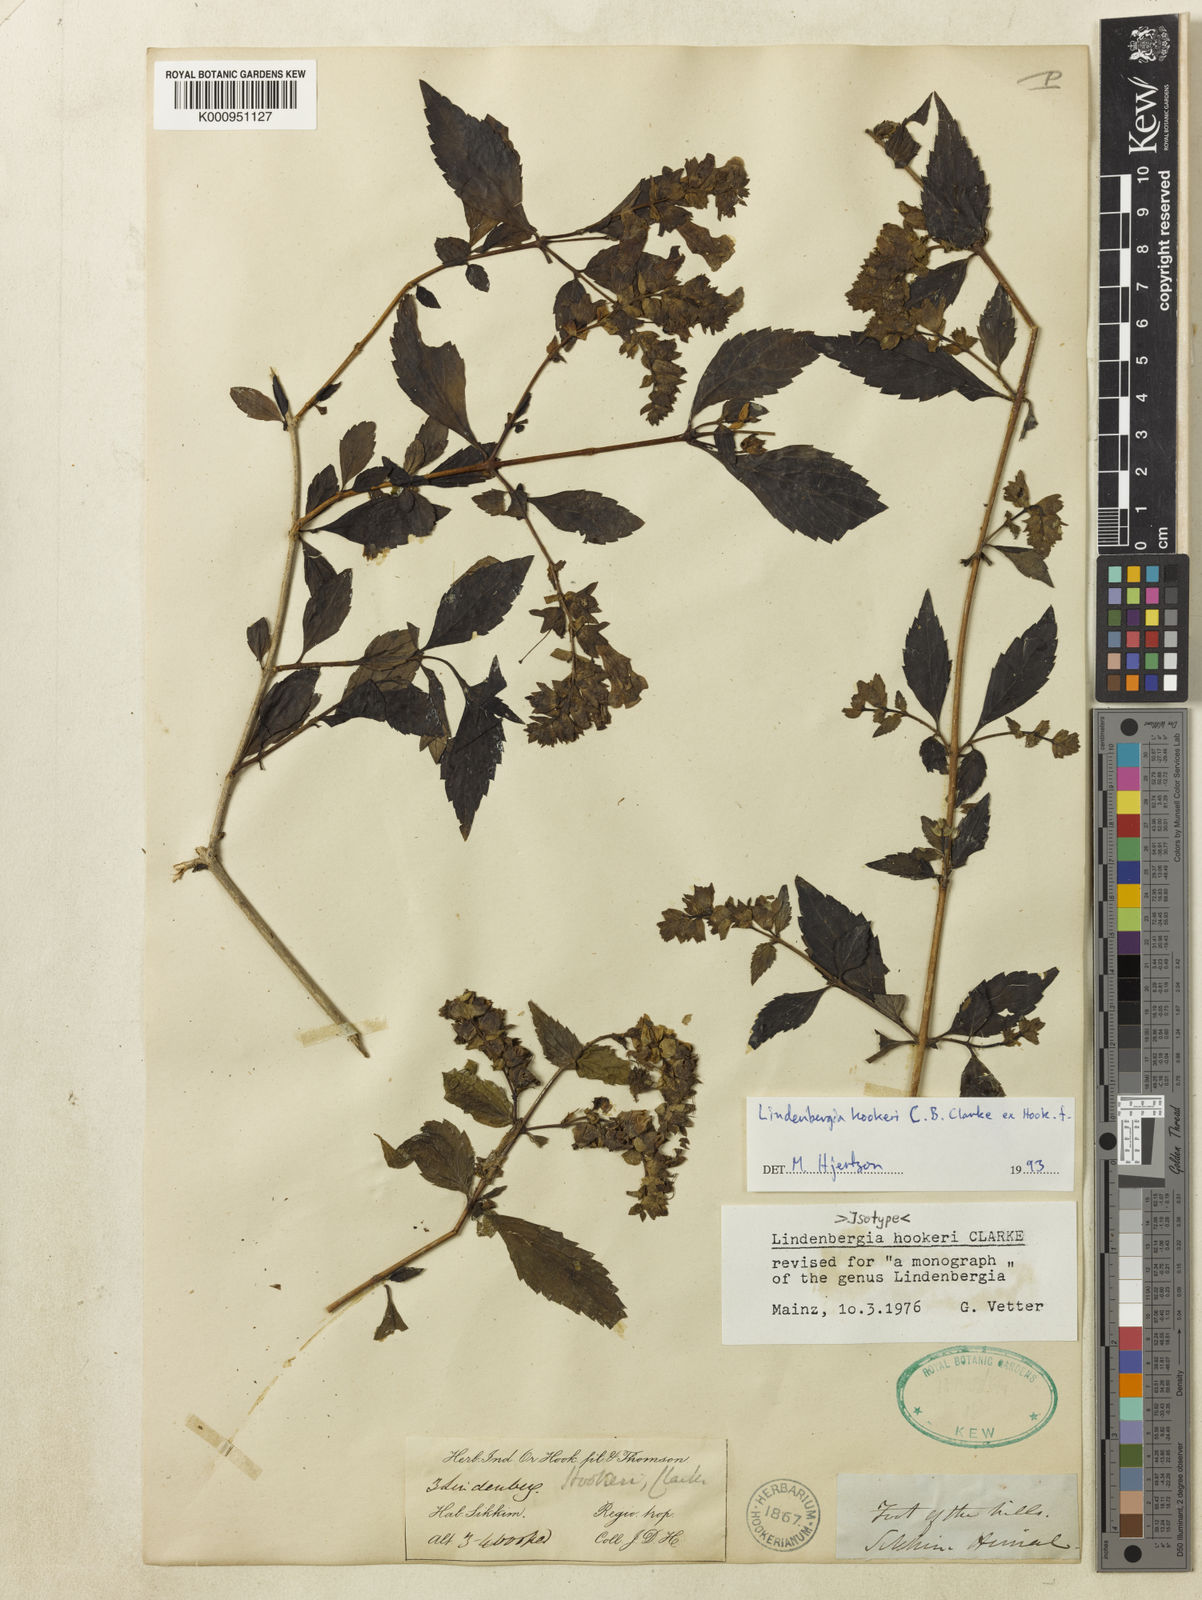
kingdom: Plantae
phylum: Tracheophyta
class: Magnoliopsida
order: Lamiales
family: Orobanchaceae
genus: Lindenbergia
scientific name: Lindenbergia hookeri
